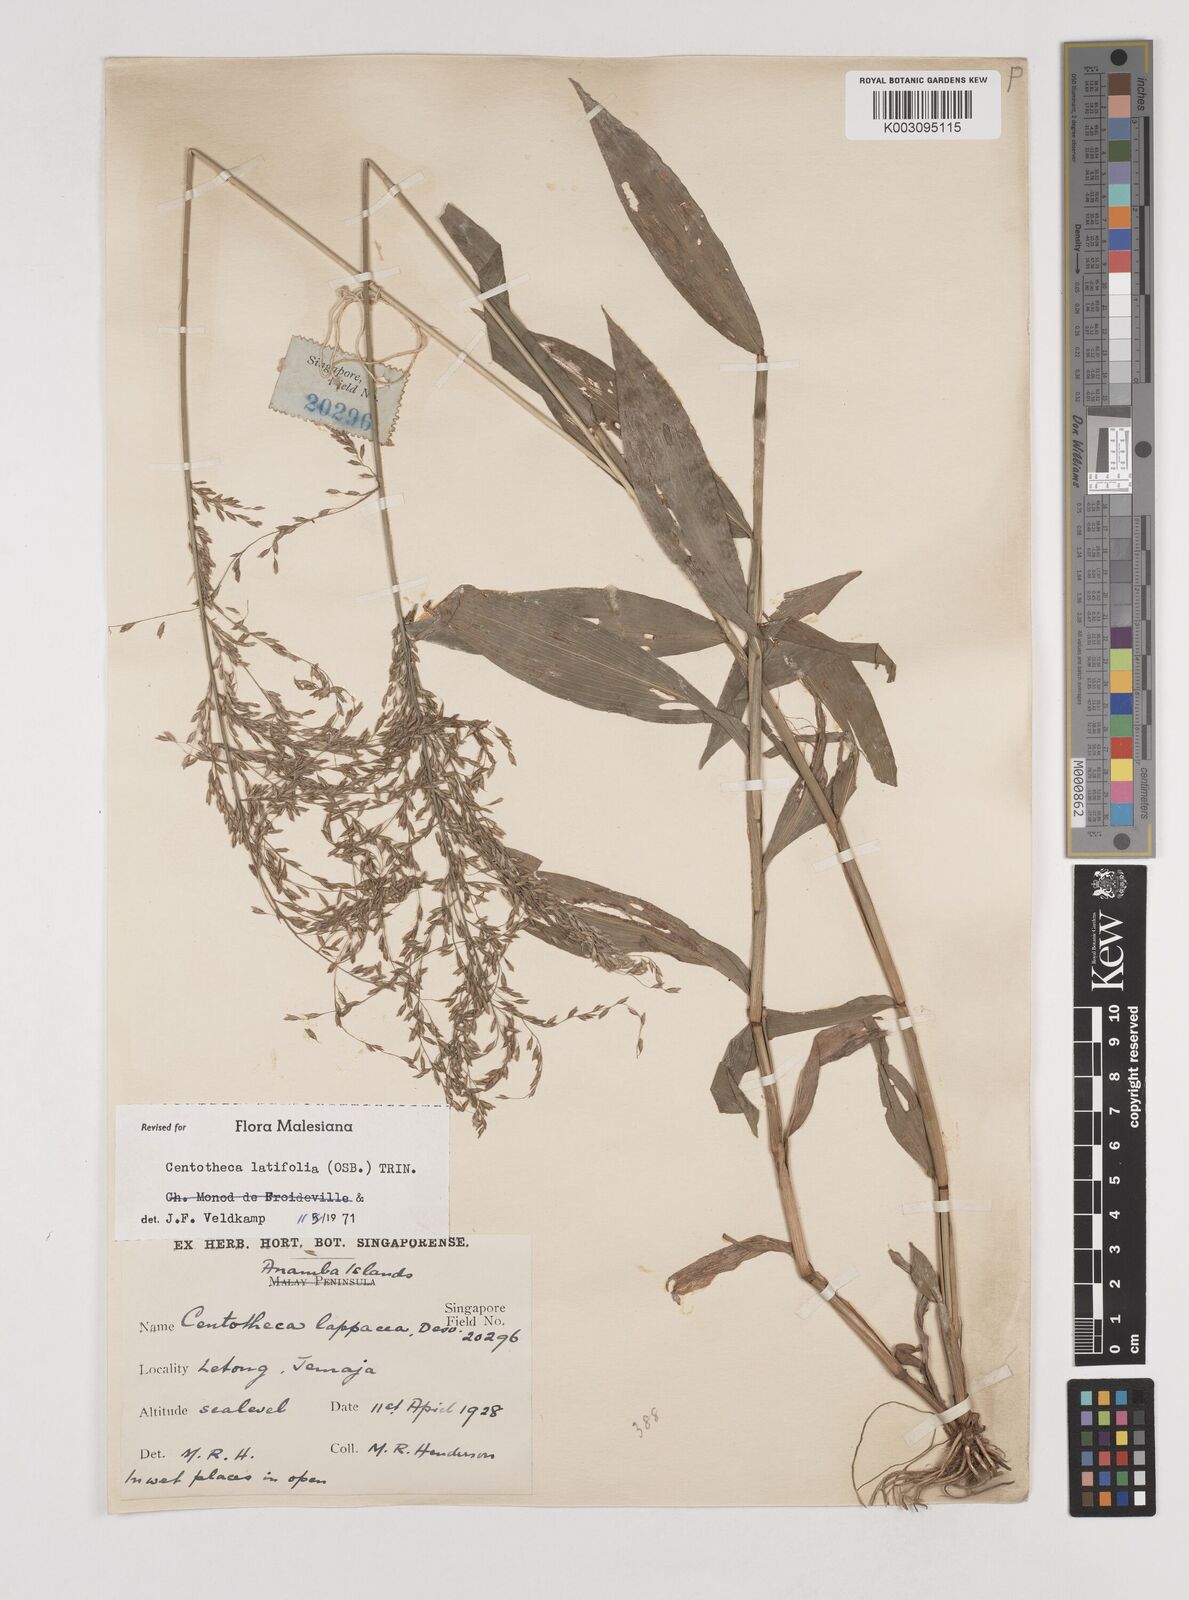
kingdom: Plantae
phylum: Tracheophyta
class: Liliopsida
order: Poales
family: Poaceae
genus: Centotheca
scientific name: Centotheca lappacea
